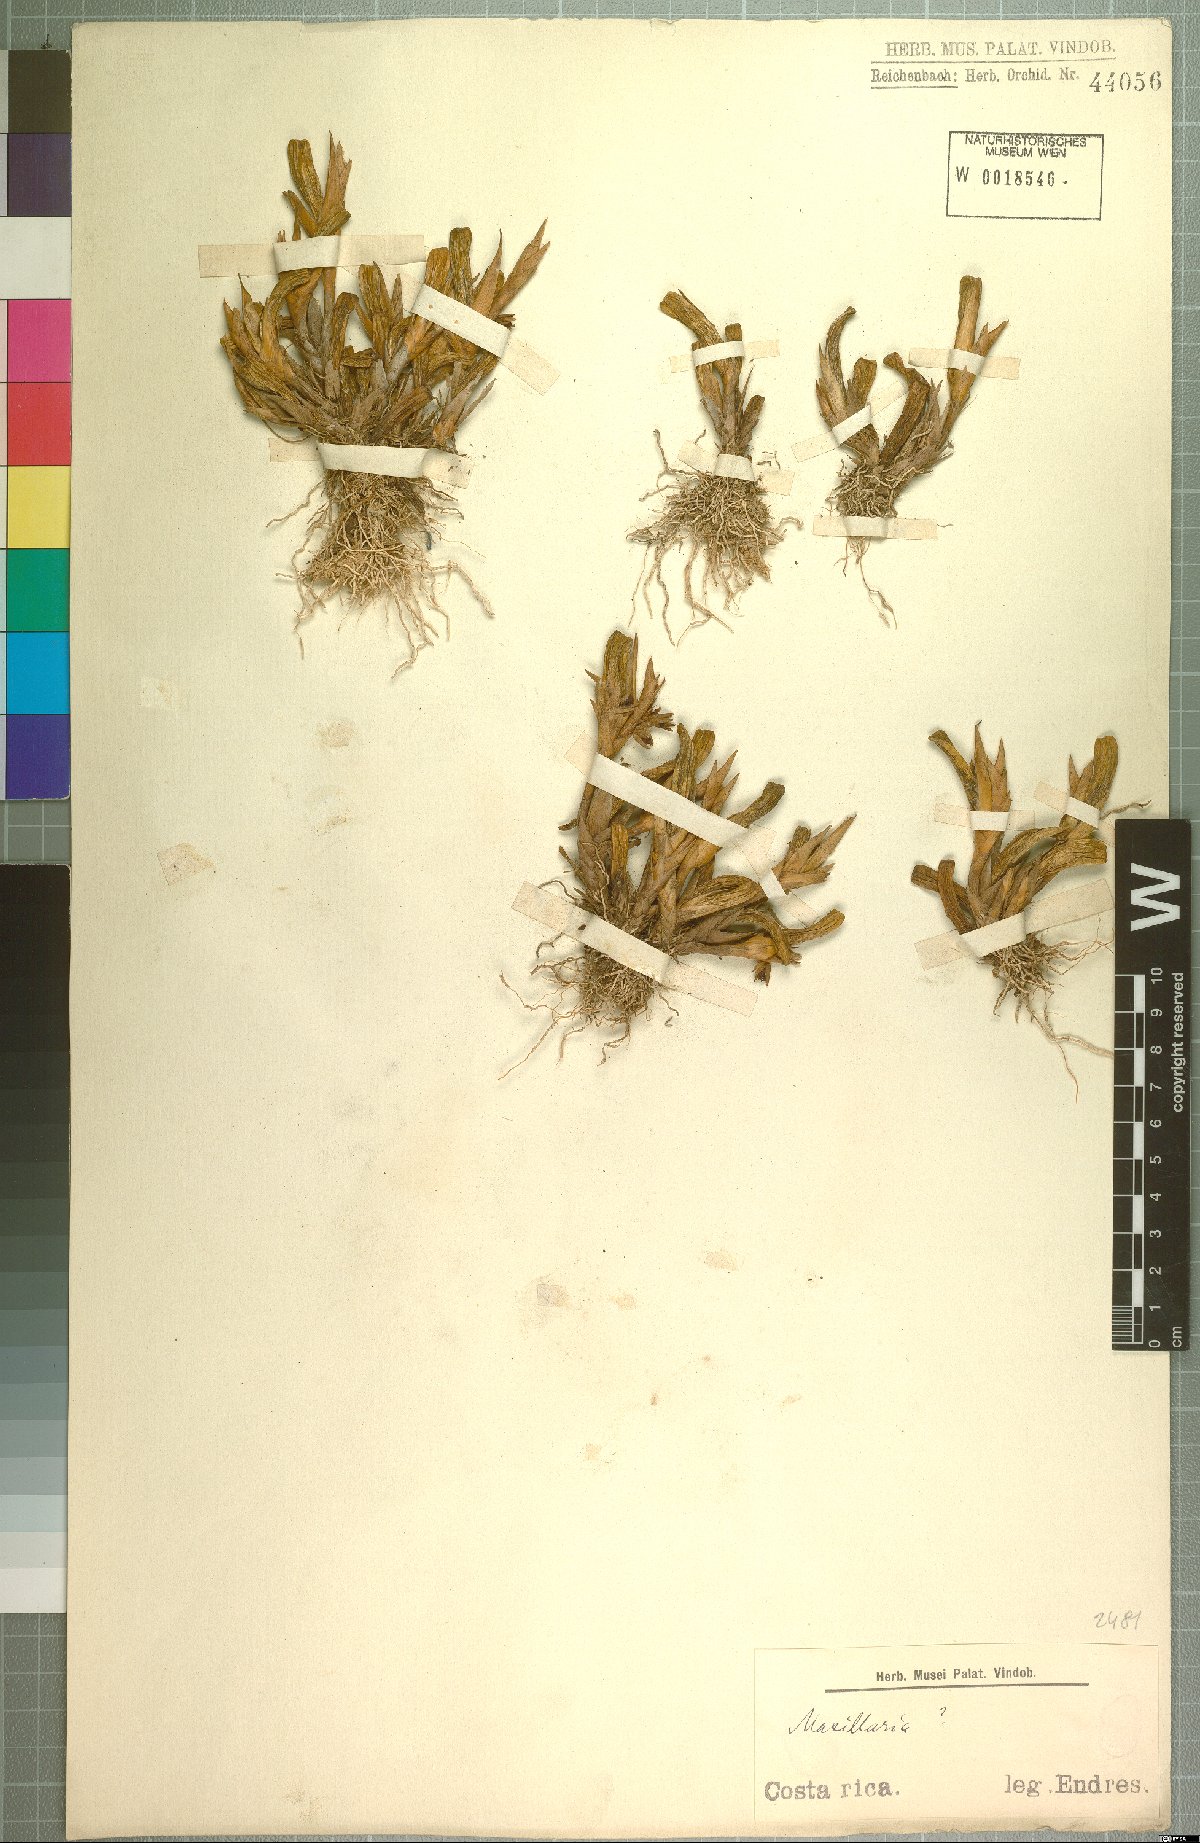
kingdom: Plantae
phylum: Tracheophyta
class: Liliopsida
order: Asparagales
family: Orchidaceae
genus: Maxillaria
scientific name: Maxillaria
